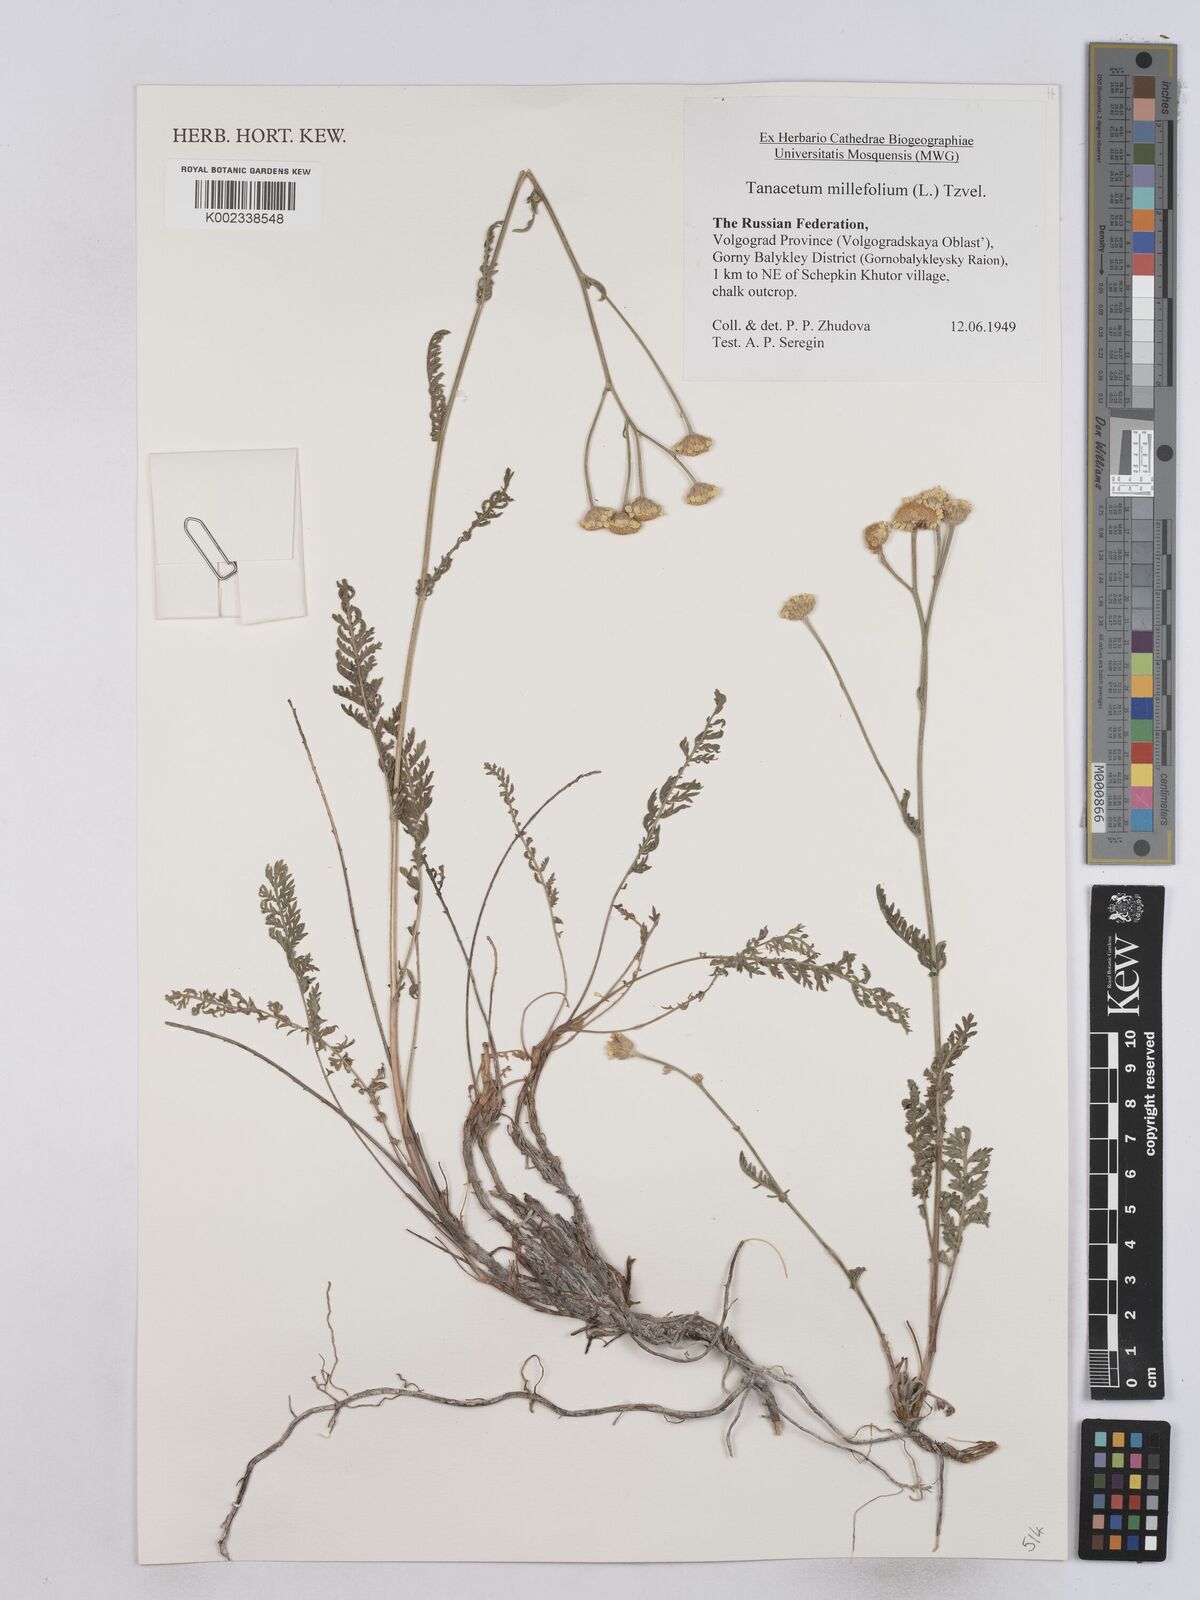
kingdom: Plantae
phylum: Tracheophyta
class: Magnoliopsida
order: Asterales
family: Asteraceae
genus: Tanacetum
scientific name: Tanacetum millefolium
